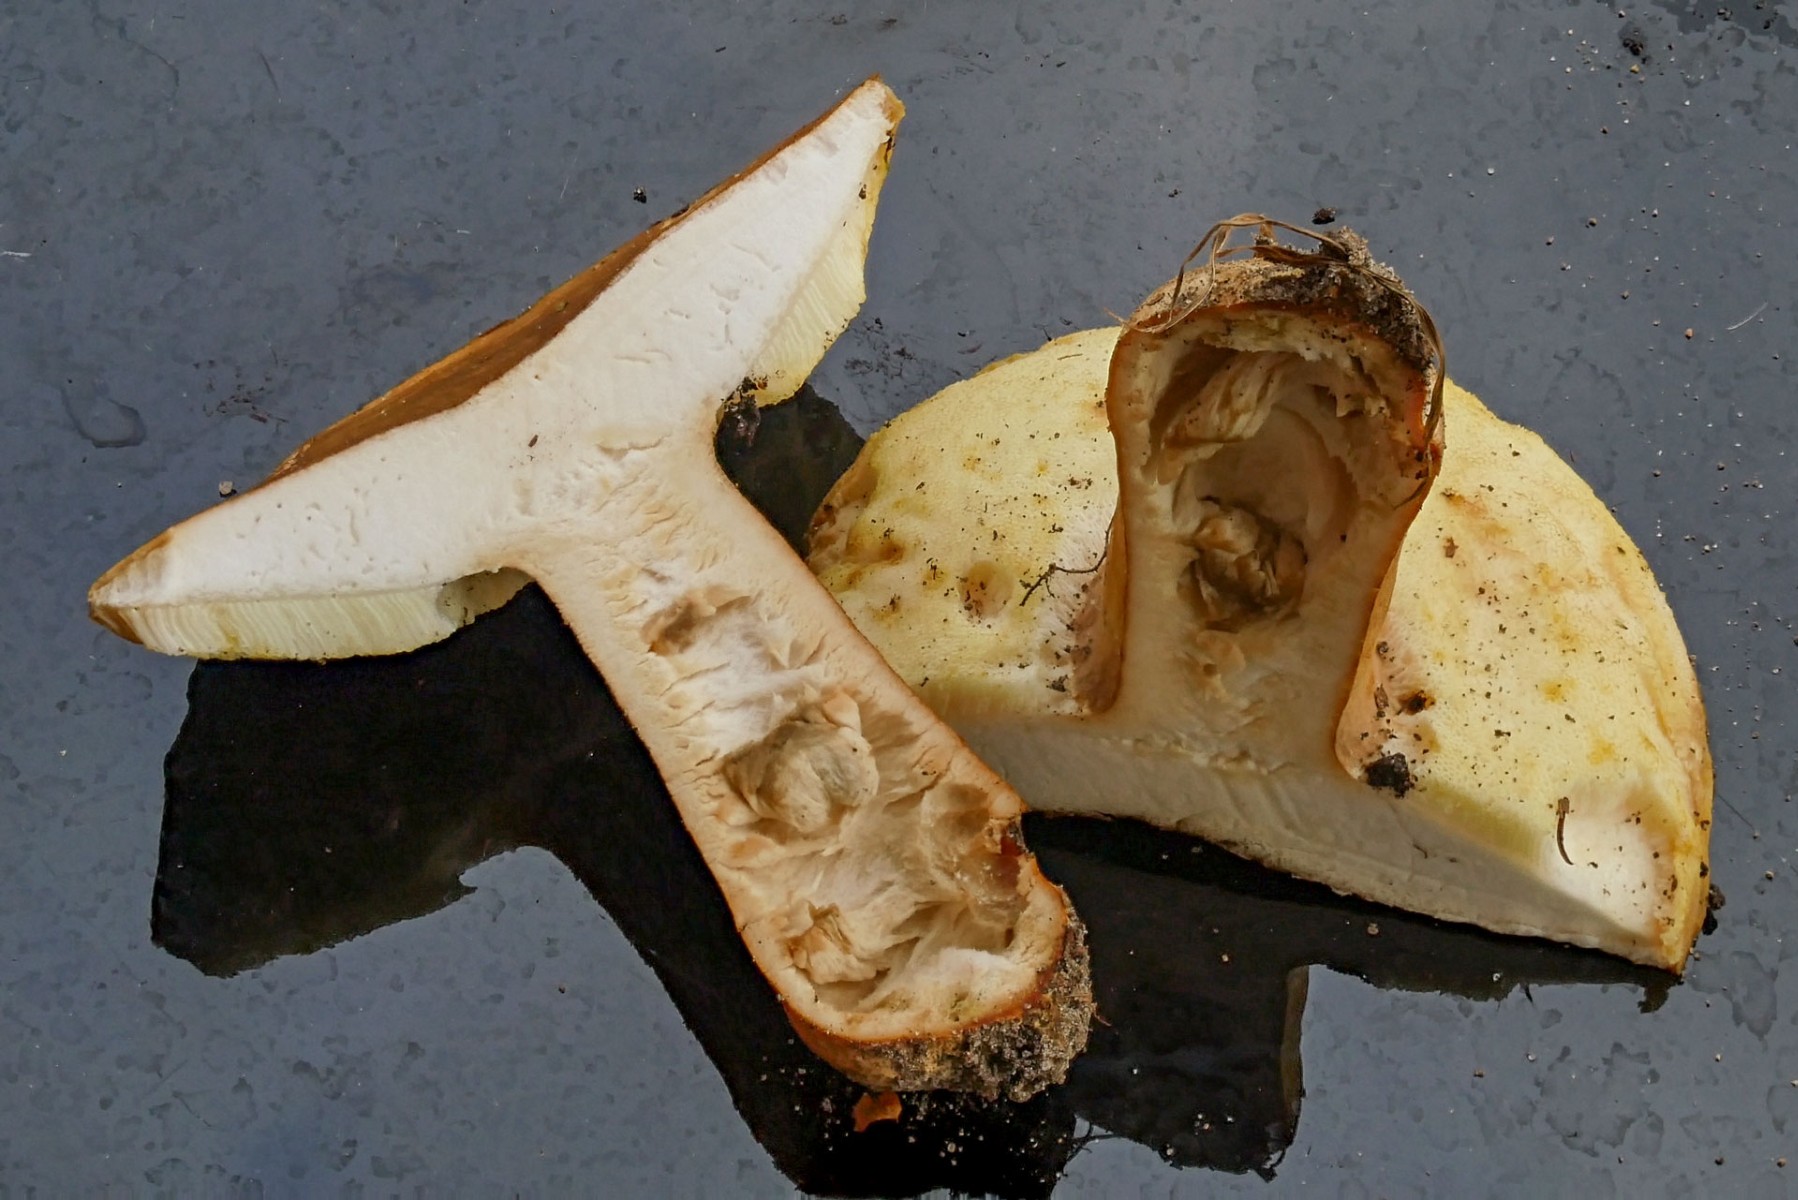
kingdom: Fungi
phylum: Basidiomycota
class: Agaricomycetes
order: Boletales
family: Gyroporaceae
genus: Gyroporus
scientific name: Gyroporus castaneus
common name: kastanie-kammerrørhat
